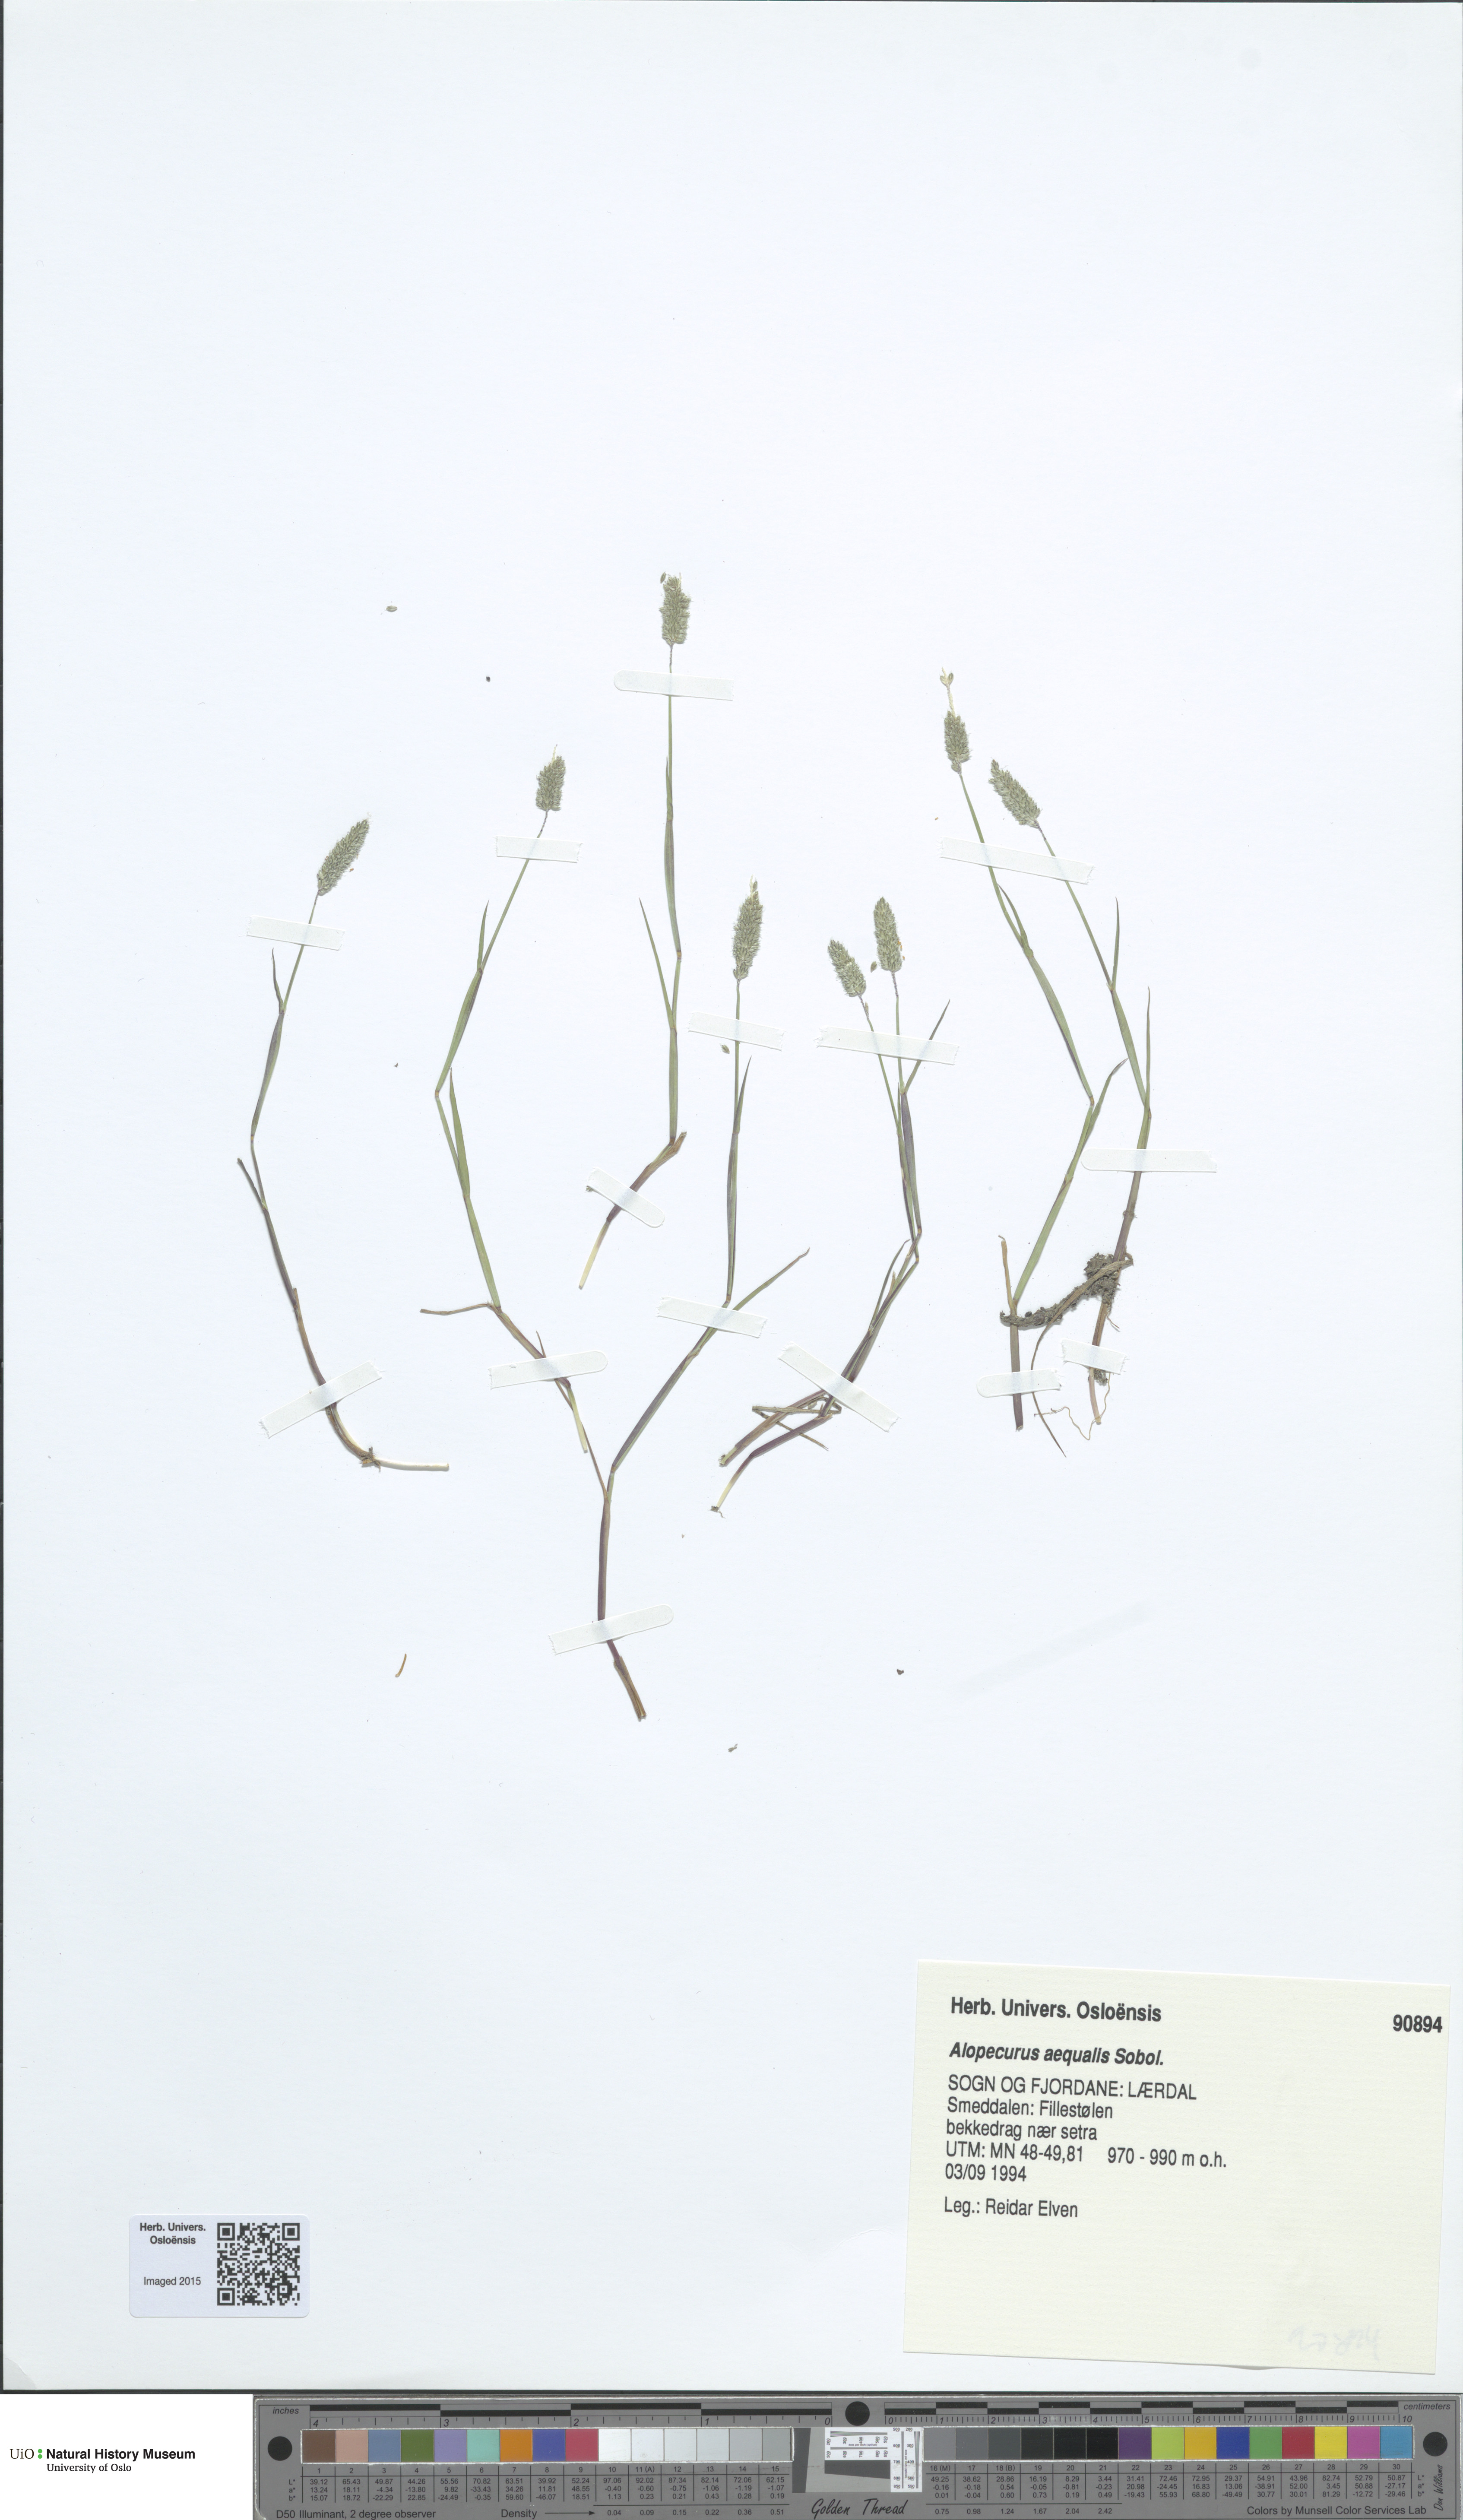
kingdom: Plantae
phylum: Tracheophyta
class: Liliopsida
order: Poales
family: Poaceae
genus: Alopecurus
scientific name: Alopecurus aequalis
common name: Orange foxtail
